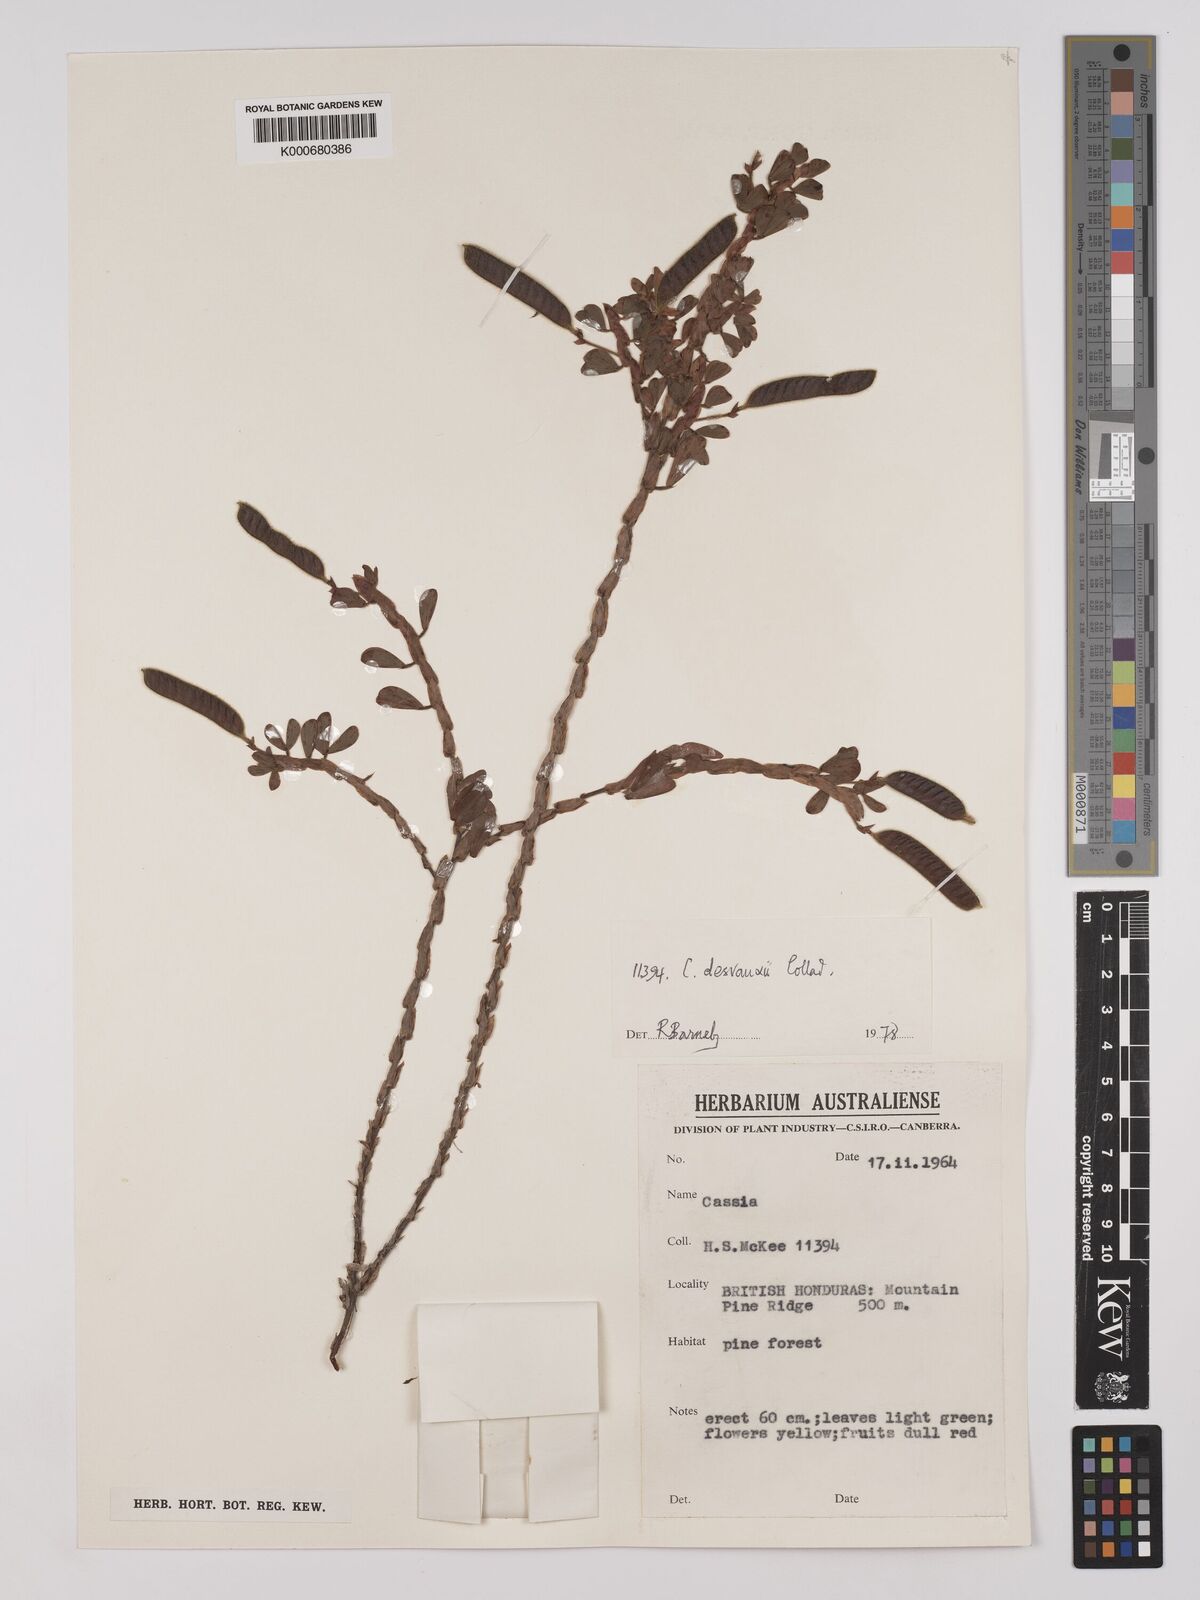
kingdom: Plantae
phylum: Tracheophyta
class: Magnoliopsida
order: Fabales
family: Fabaceae
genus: Chamaecrista
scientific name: Chamaecrista desvauxii
